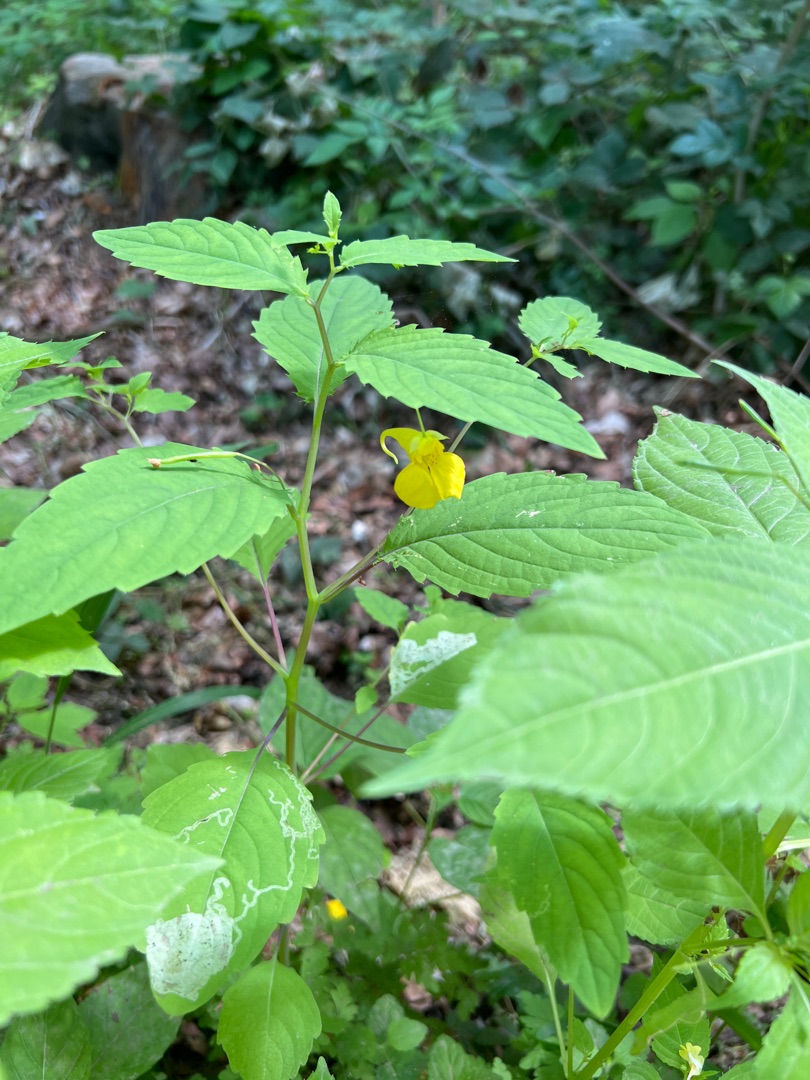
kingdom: Plantae
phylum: Tracheophyta
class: Magnoliopsida
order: Ericales
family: Balsaminaceae
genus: Impatiens
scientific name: Impatiens noli-tangere
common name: Spring-balsamin
